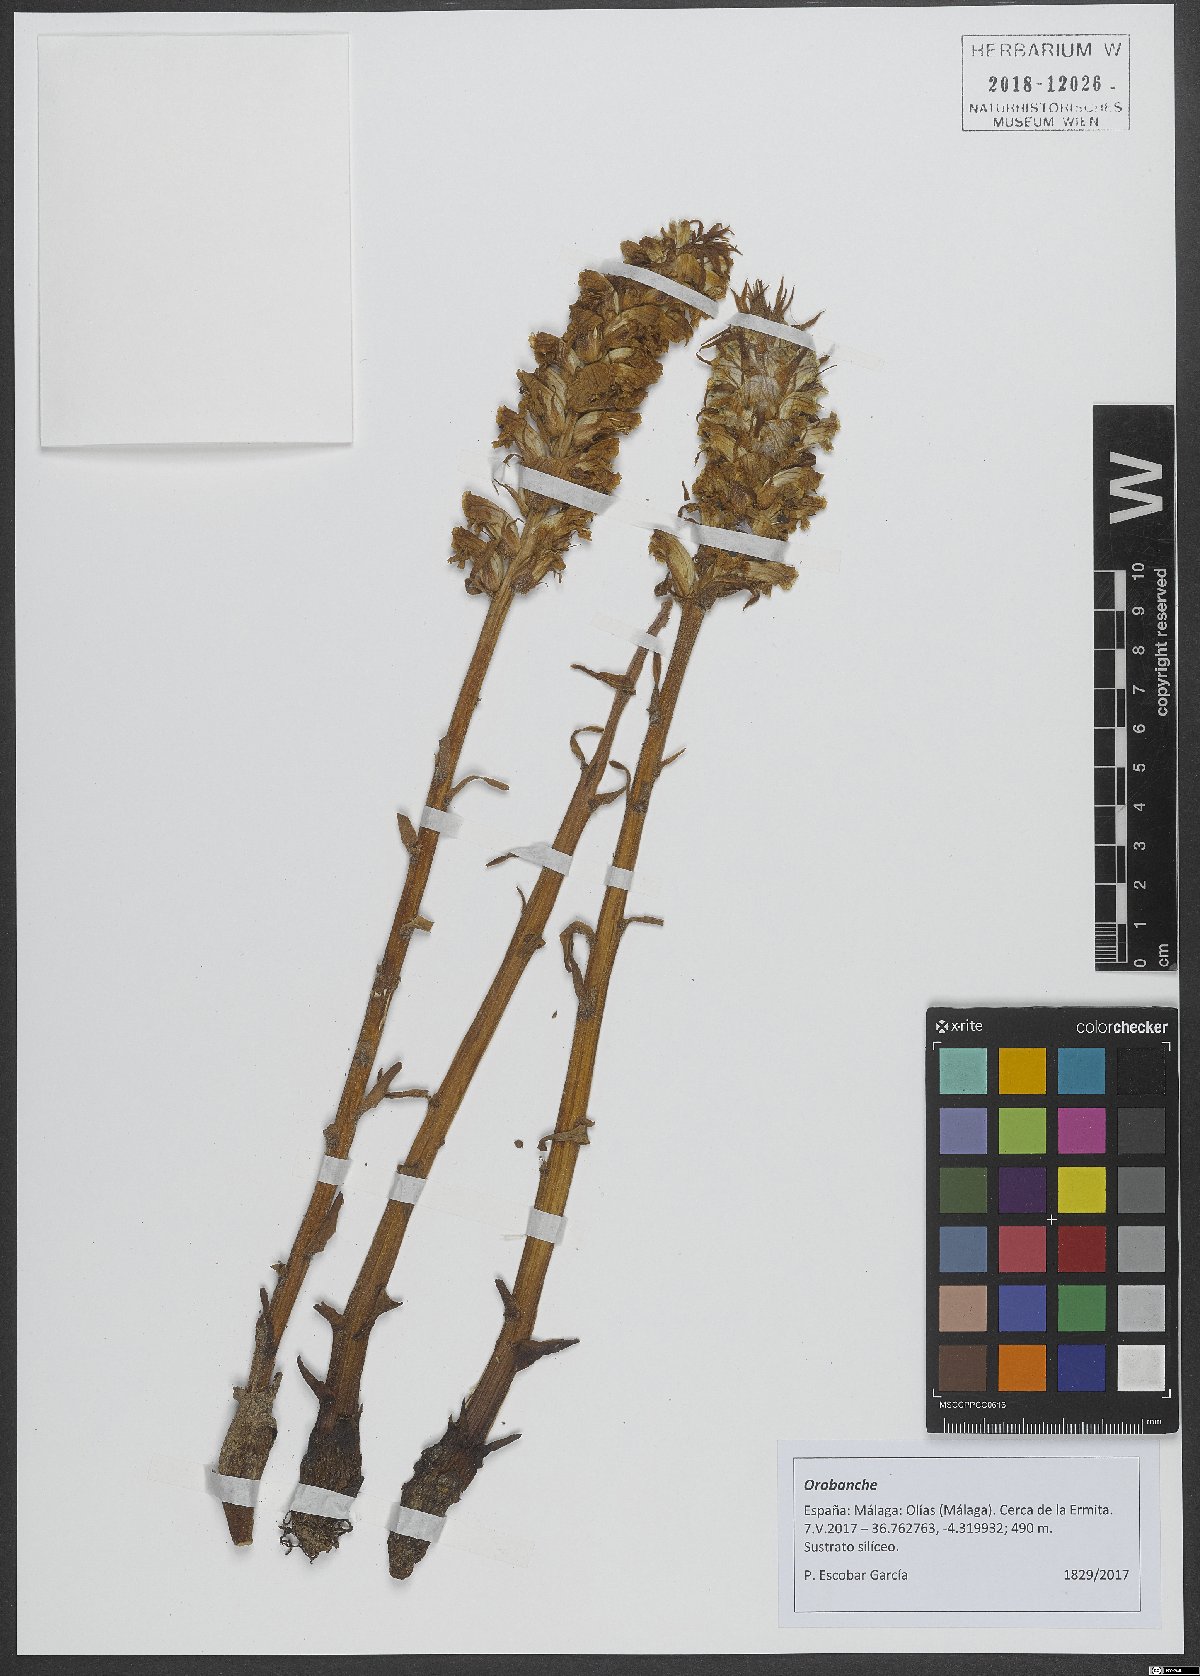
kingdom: Plantae
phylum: Tracheophyta
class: Magnoliopsida
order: Lamiales
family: Orobanchaceae
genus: Orobanche
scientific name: Orobanche
